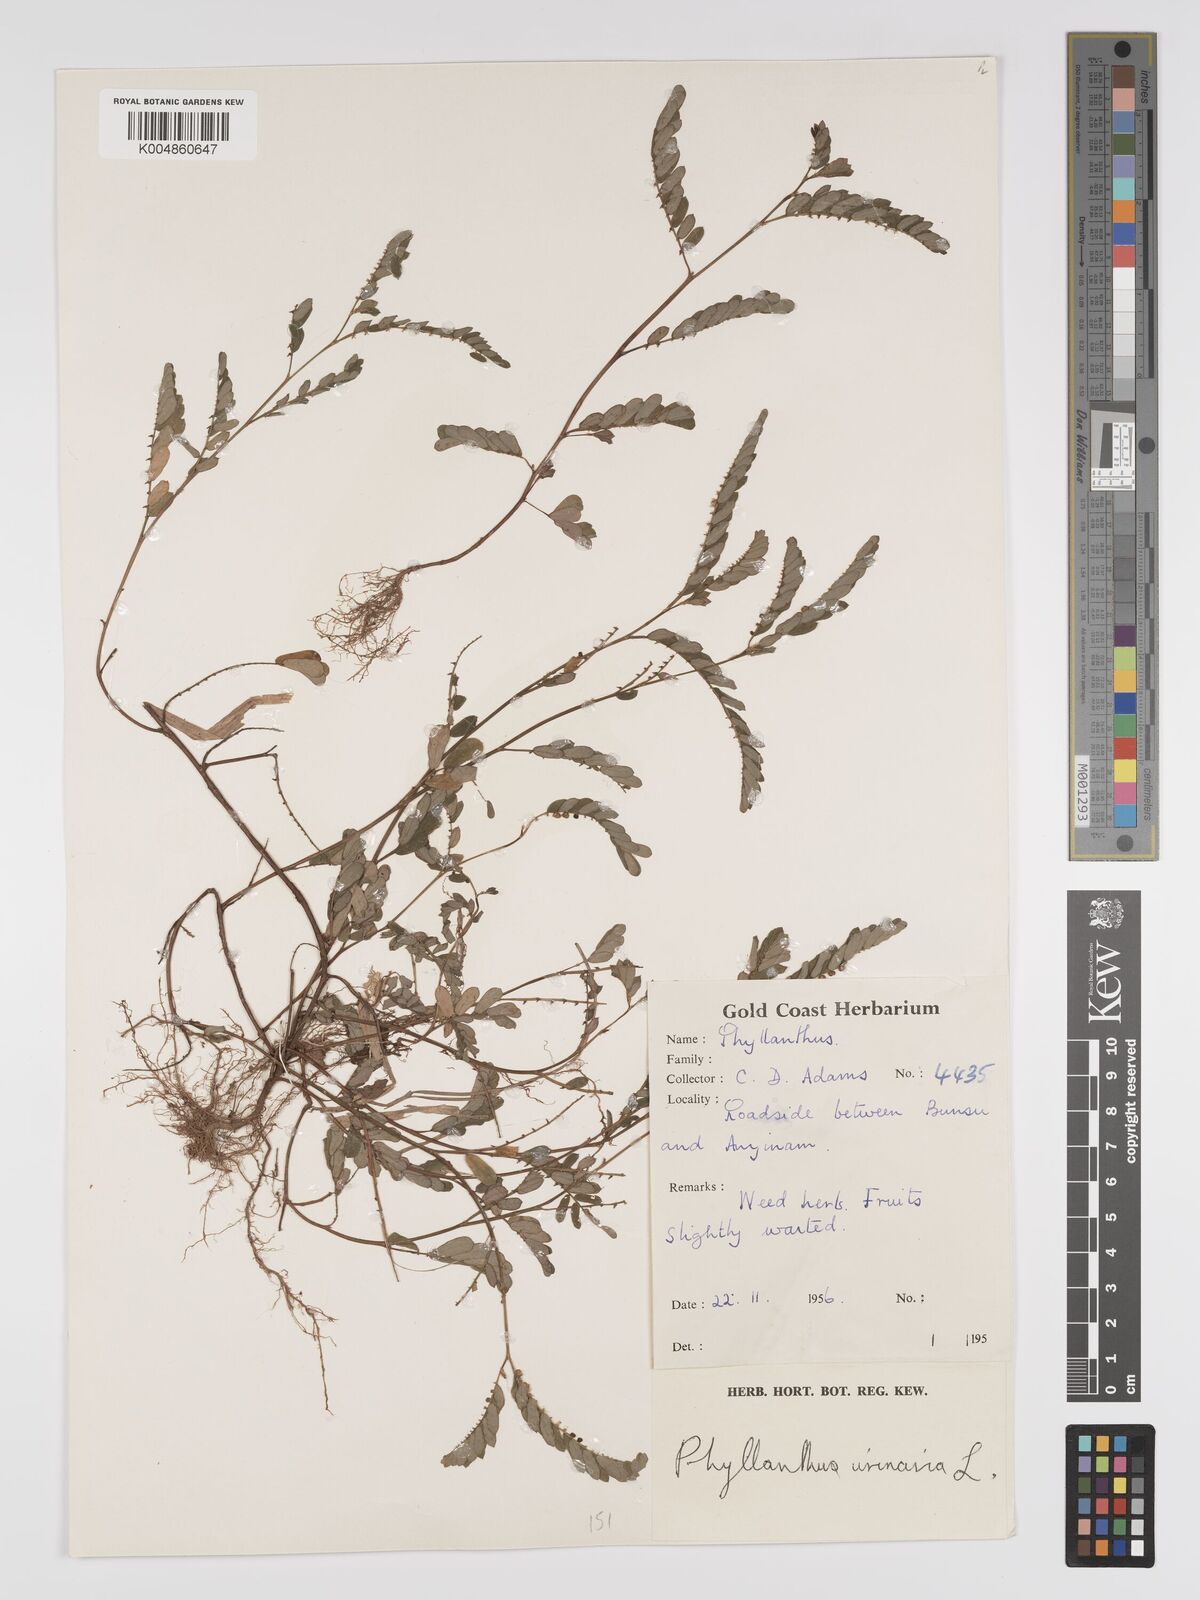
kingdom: Plantae
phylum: Tracheophyta
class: Magnoliopsida
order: Malpighiales
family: Phyllanthaceae
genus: Phyllanthus
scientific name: Phyllanthus urinaria
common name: Chamber bitter
